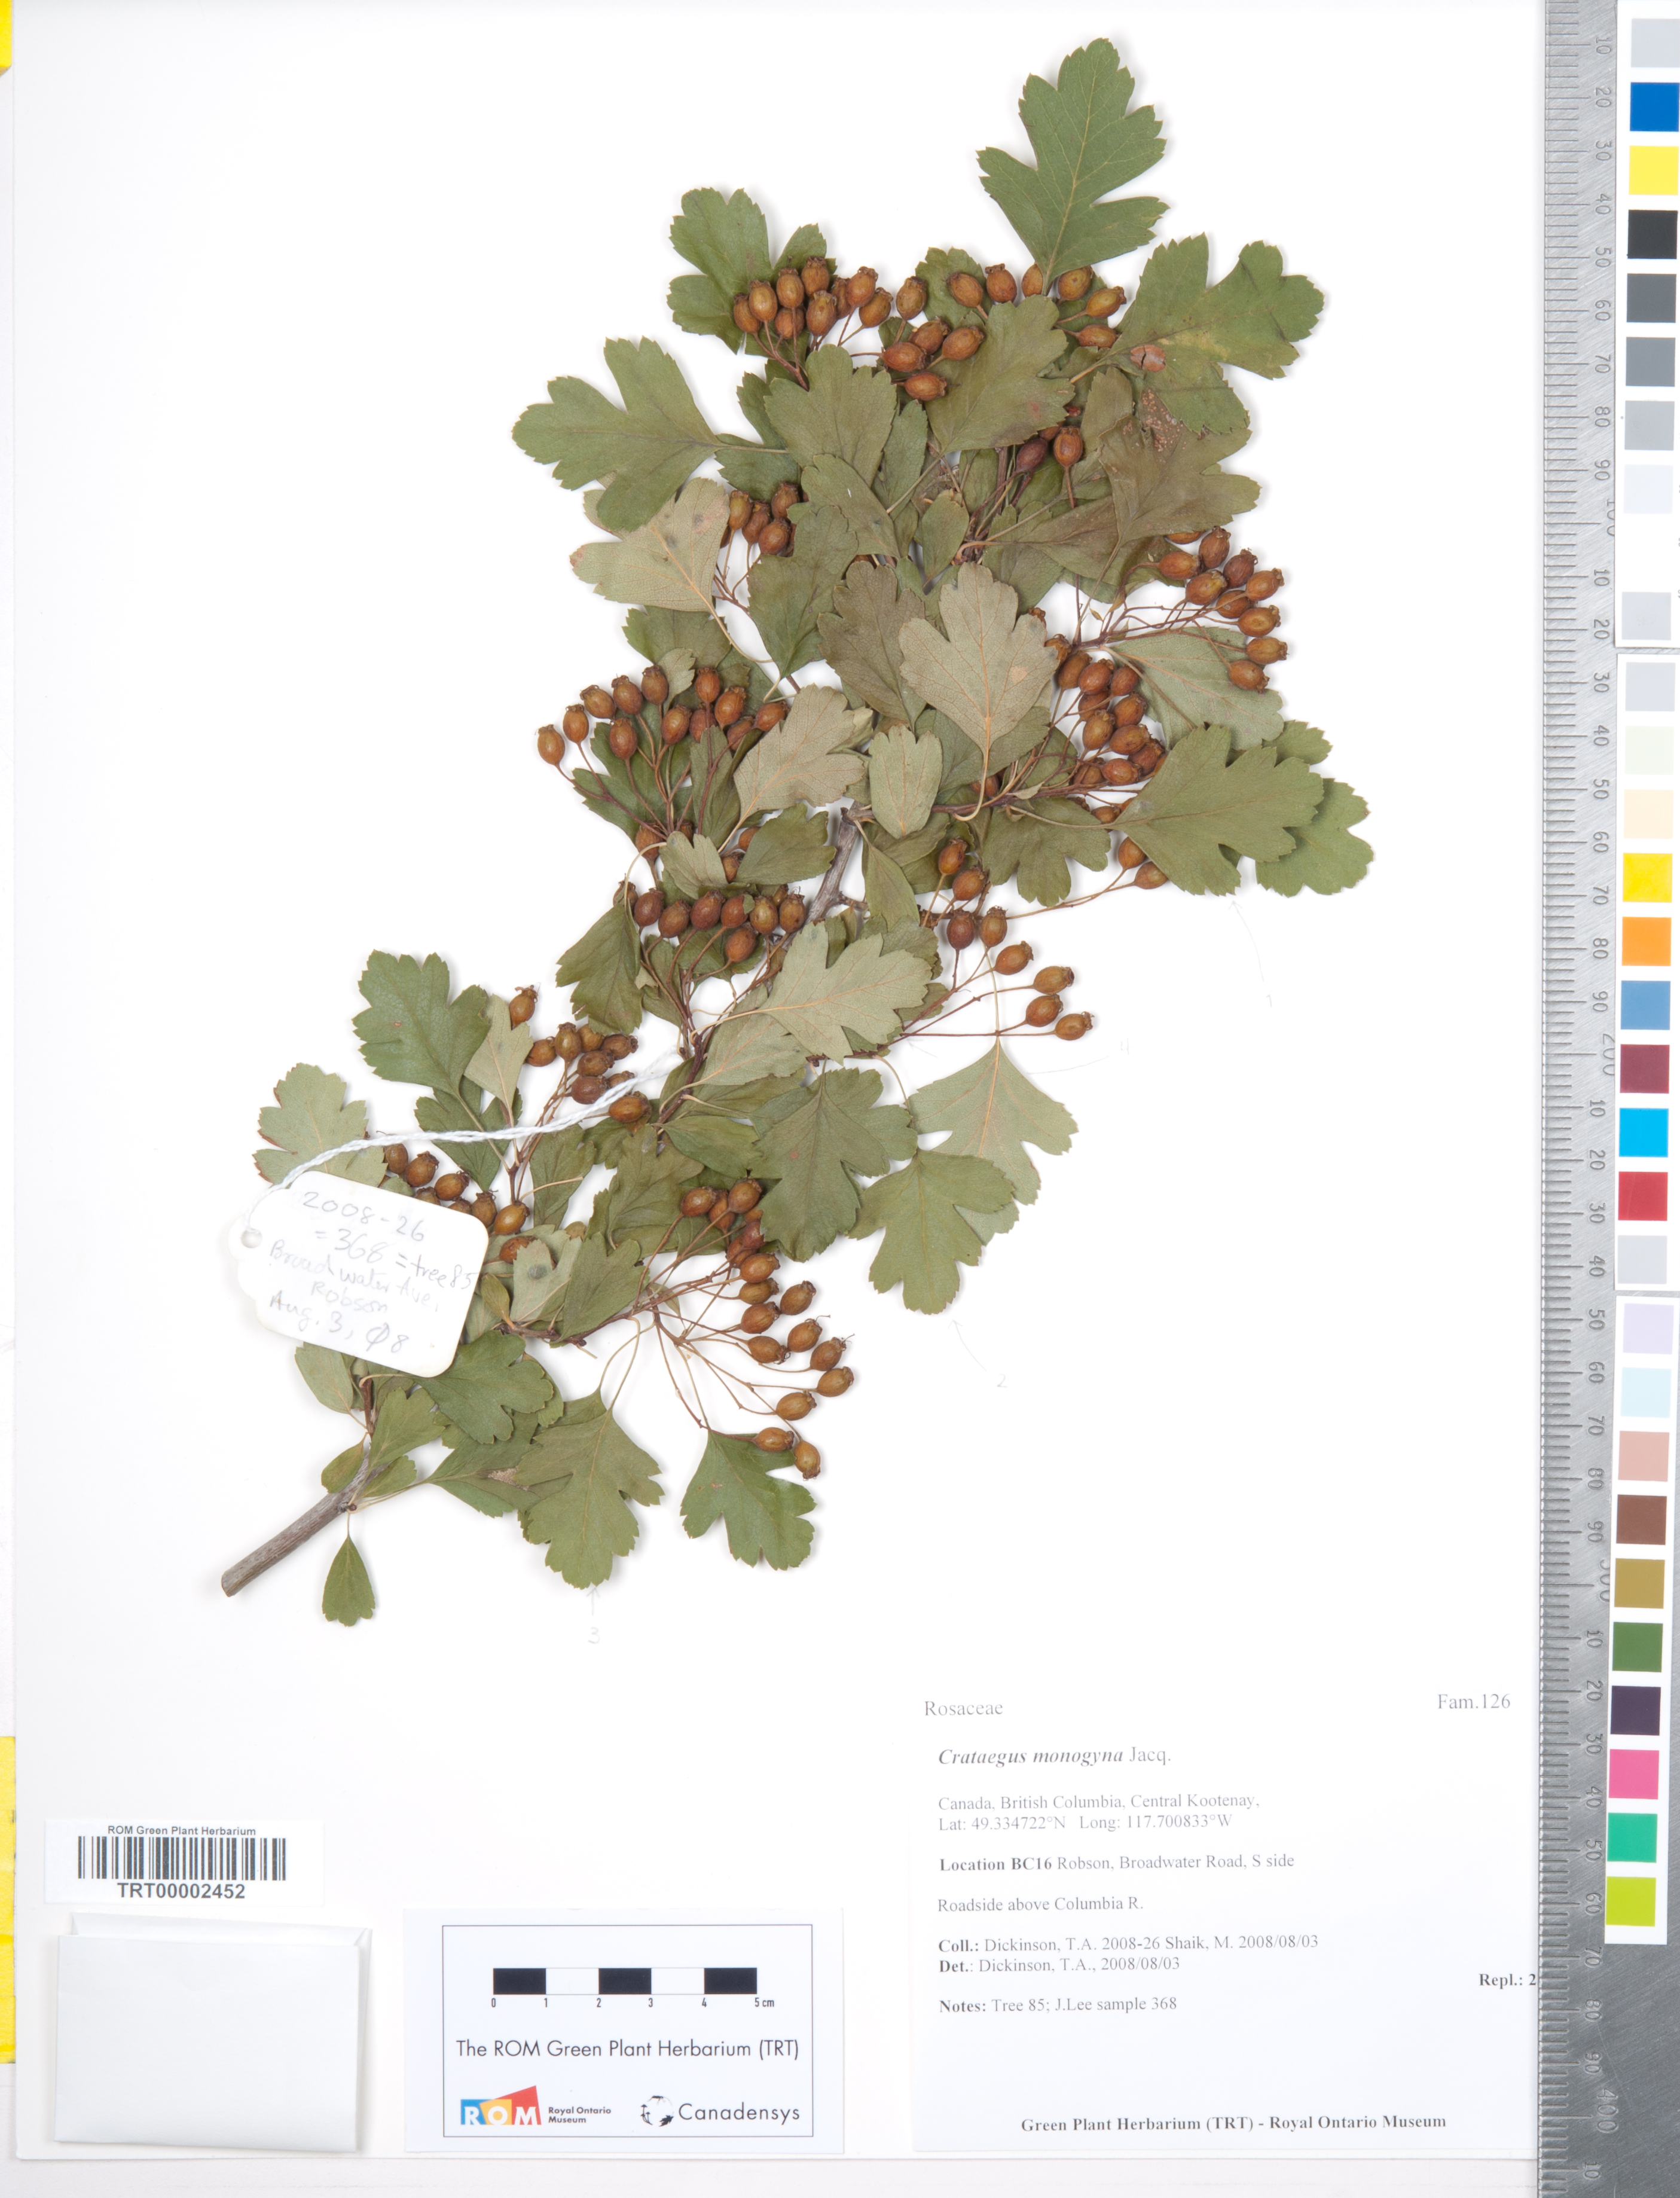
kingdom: Plantae
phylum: Tracheophyta
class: Magnoliopsida
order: Rosales
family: Rosaceae
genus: Crataegus
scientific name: Crataegus monogyna
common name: Hawthorn
